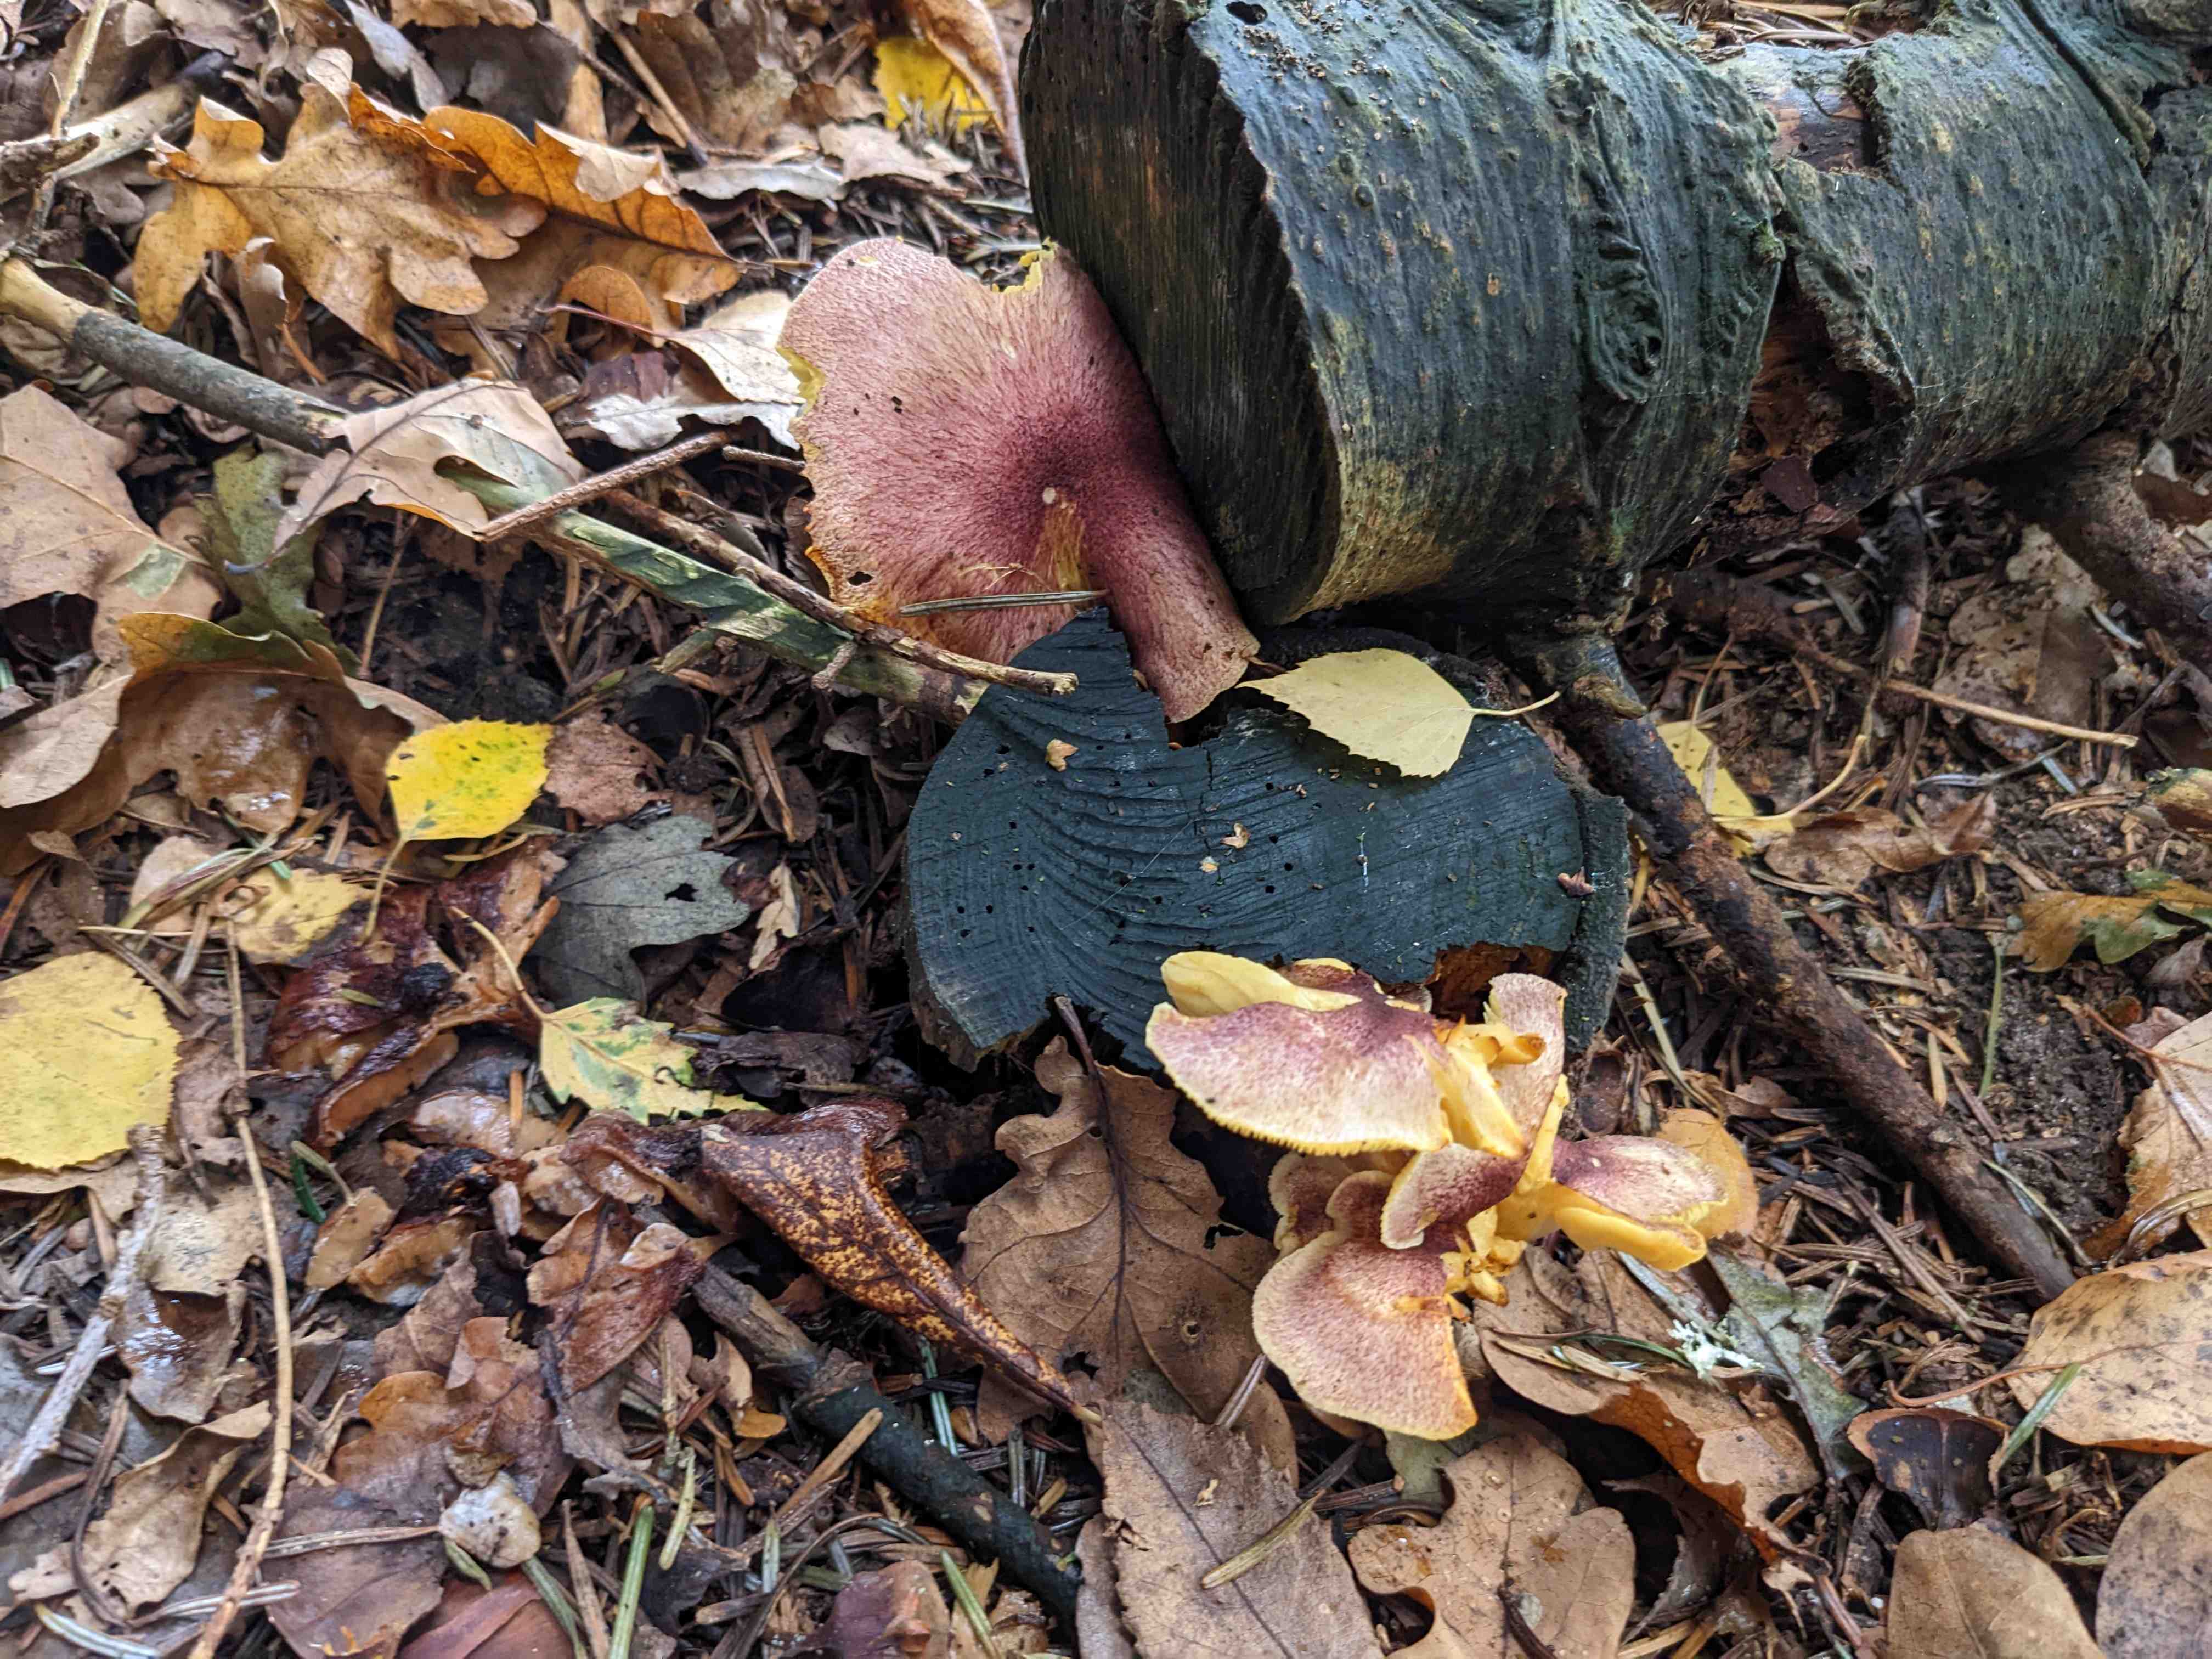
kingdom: Fungi
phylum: Basidiomycota
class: Agaricomycetes
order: Agaricales
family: Tricholomataceae
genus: Tricholomopsis
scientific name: Tricholomopsis rutilans
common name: purpur-væbnerhat
